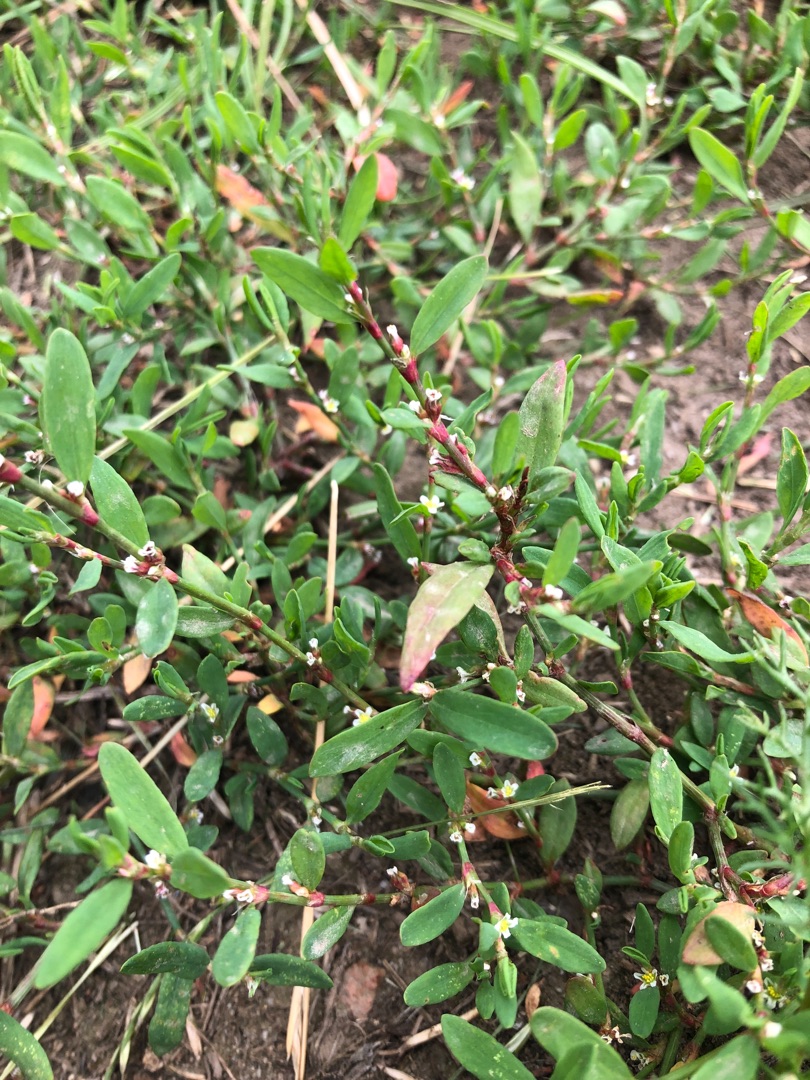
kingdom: Plantae
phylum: Tracheophyta
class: Magnoliopsida
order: Caryophyllales
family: Polygonaceae
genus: Polygonum
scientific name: Polygonum aviculare
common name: Vej-pileurt
